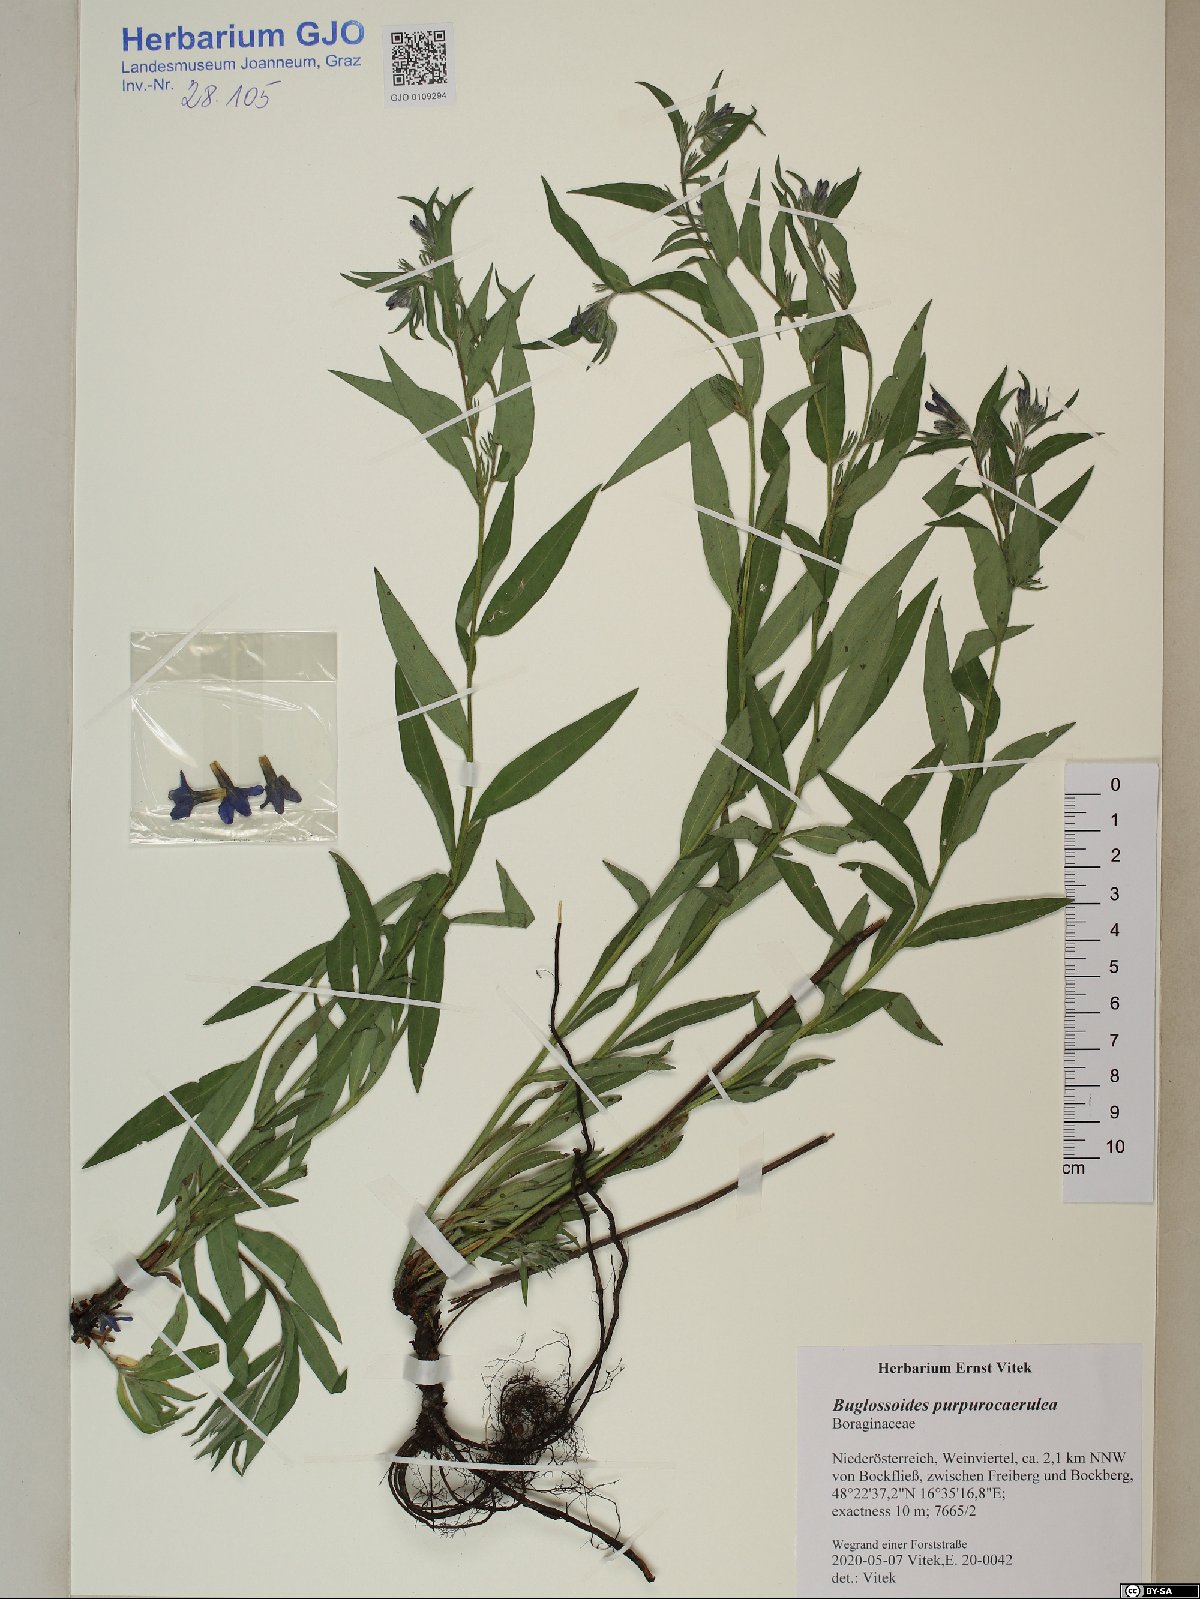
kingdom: Plantae
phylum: Tracheophyta
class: Magnoliopsida
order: Boraginales
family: Boraginaceae
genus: Aegonychon
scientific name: Aegonychon purpurocaeruleum
